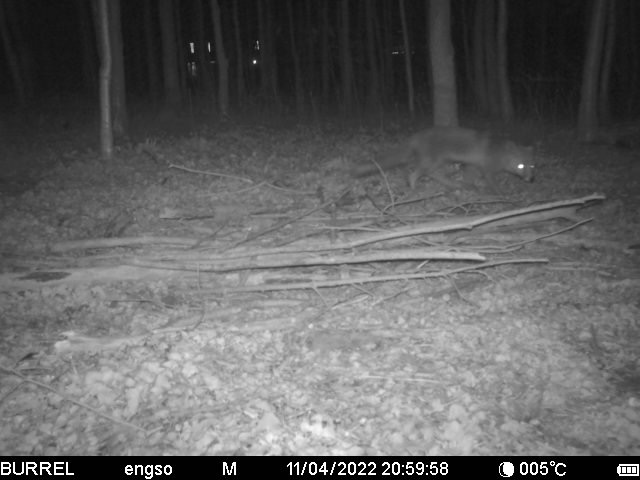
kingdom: Animalia
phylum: Chordata
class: Mammalia
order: Carnivora
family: Canidae
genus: Vulpes
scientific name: Vulpes vulpes
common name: Ræv
